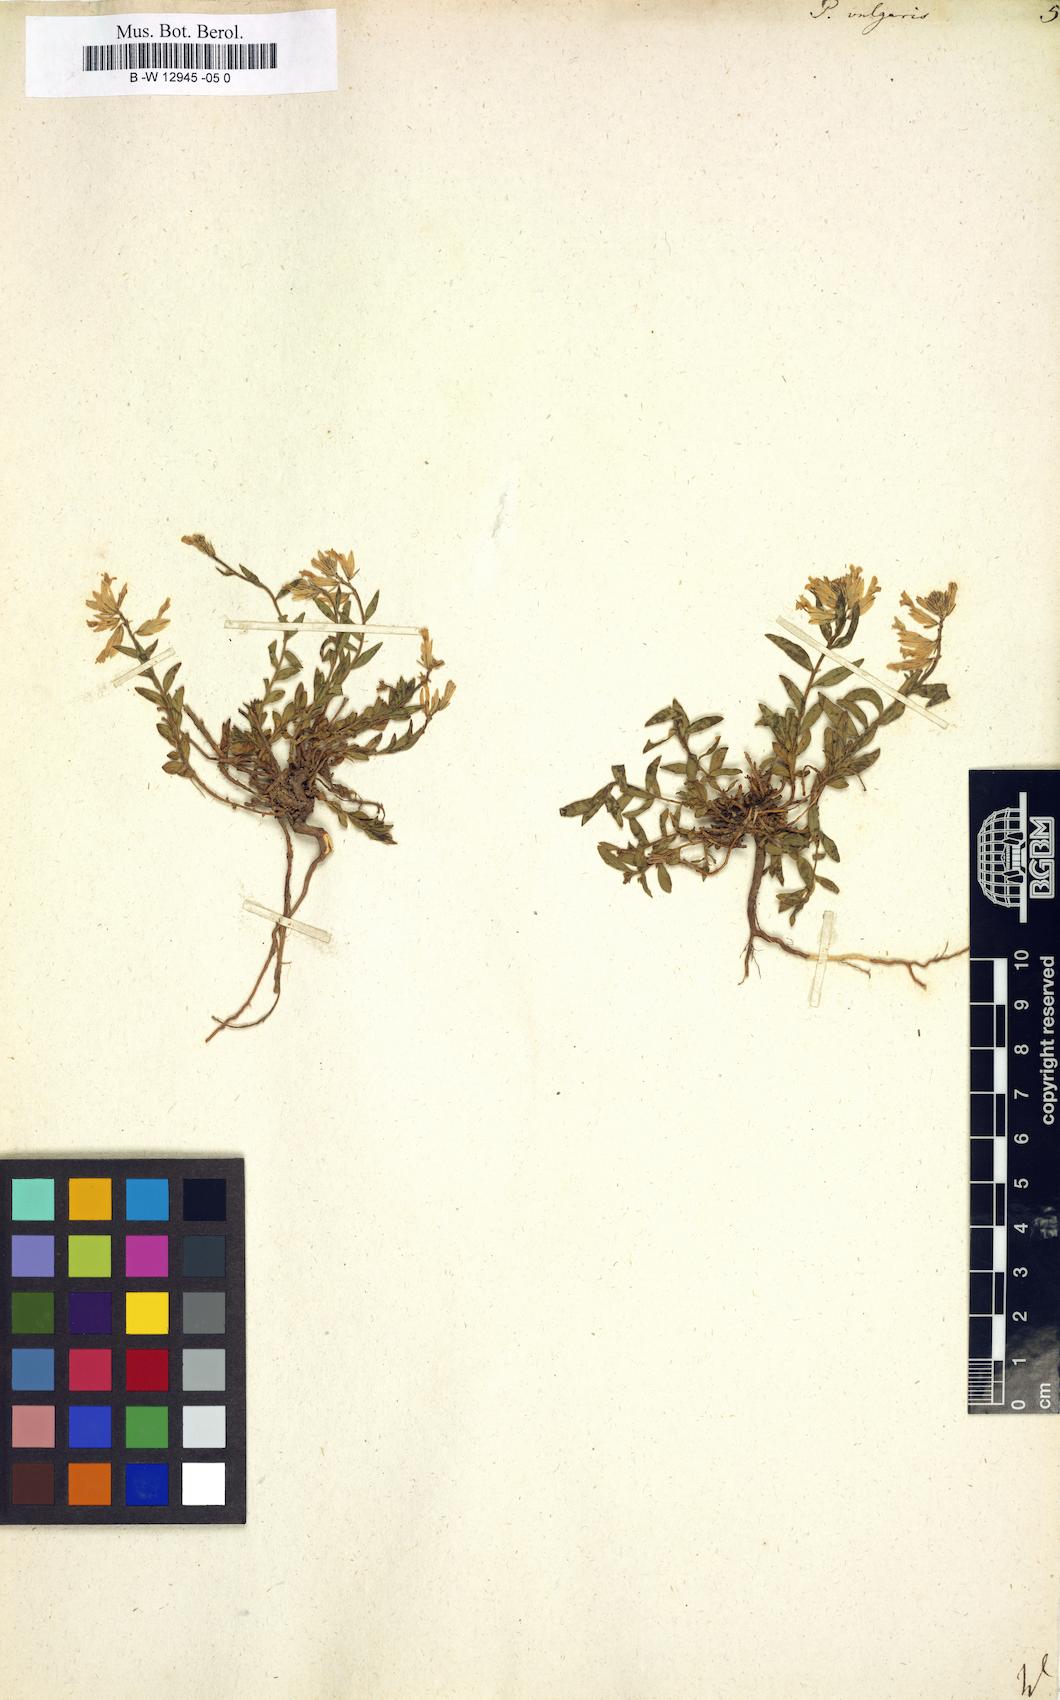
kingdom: Plantae
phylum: Tracheophyta
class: Magnoliopsida
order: Fabales
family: Polygalaceae
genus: Polygala
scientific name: Polygala vulgaris
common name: Common milkwort
